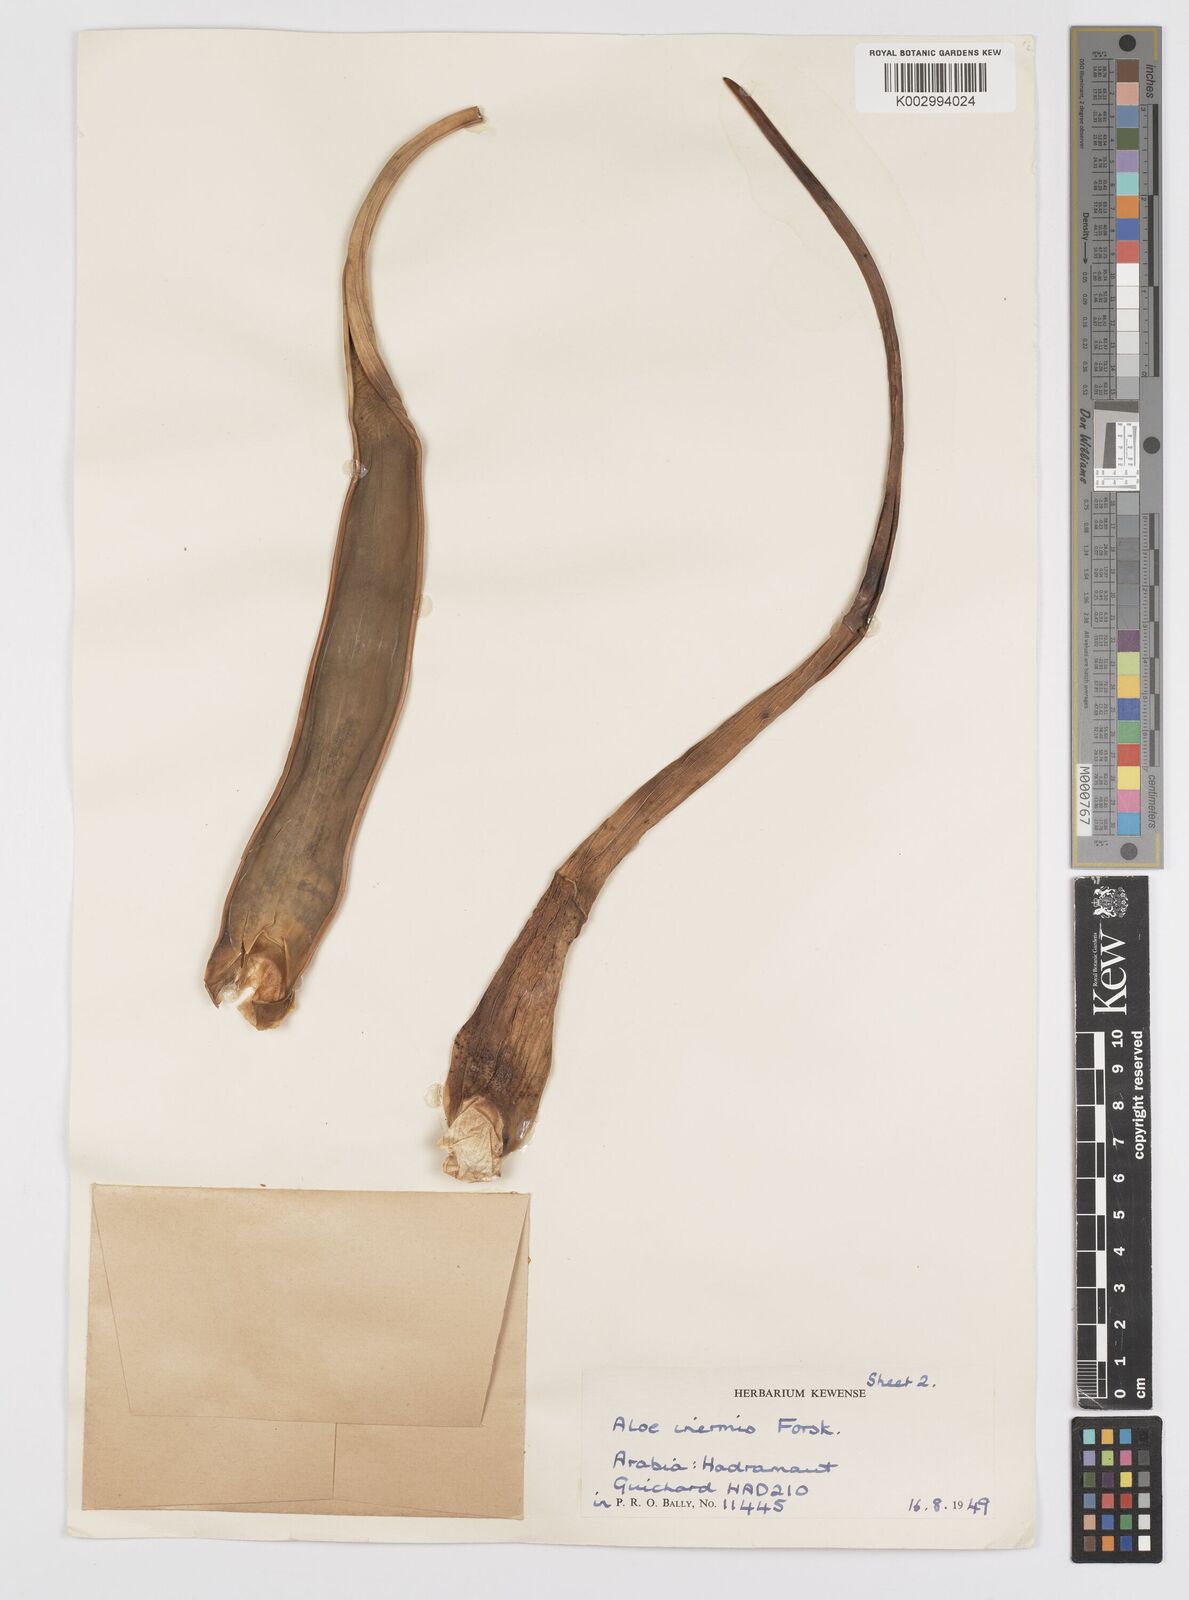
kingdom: Plantae
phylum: Tracheophyta
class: Liliopsida
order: Asparagales
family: Asphodelaceae
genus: Aloe
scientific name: Aloe inermis
